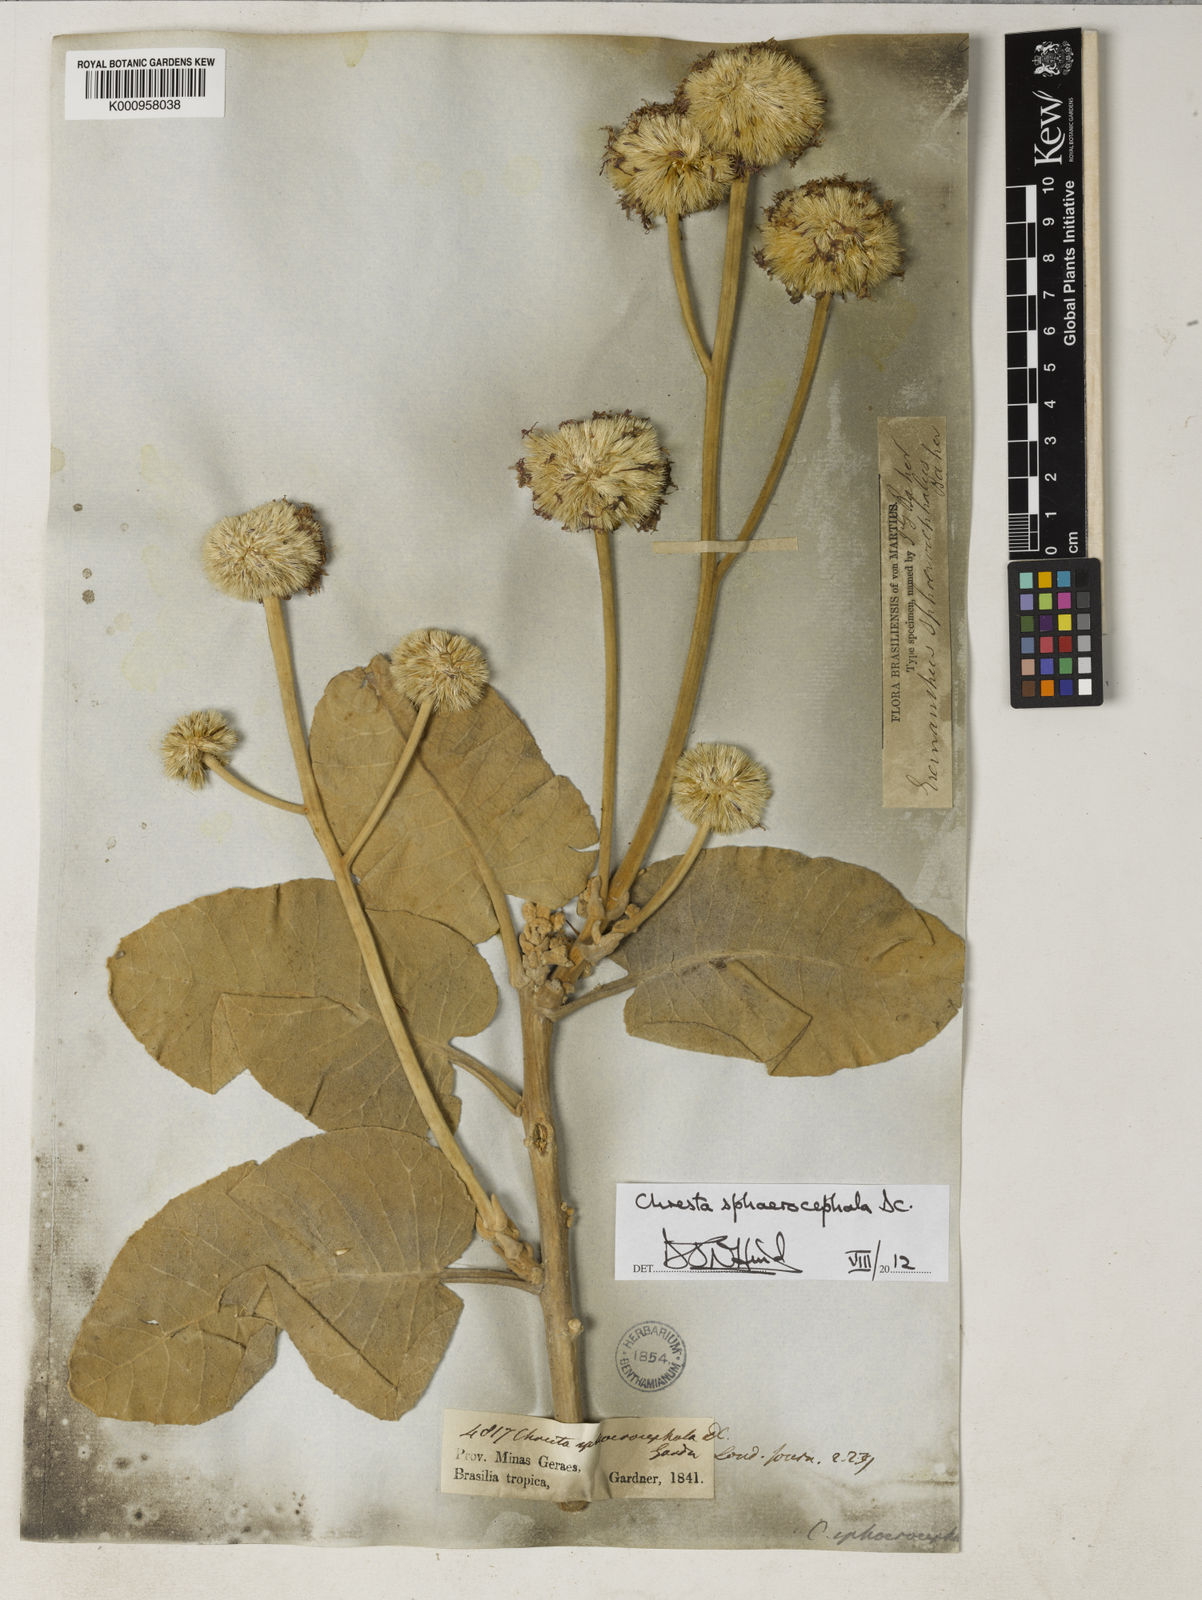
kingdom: Plantae
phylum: Tracheophyta
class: Magnoliopsida
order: Asterales
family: Asteraceae
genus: Chresta
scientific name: Chresta sphaerocephala
